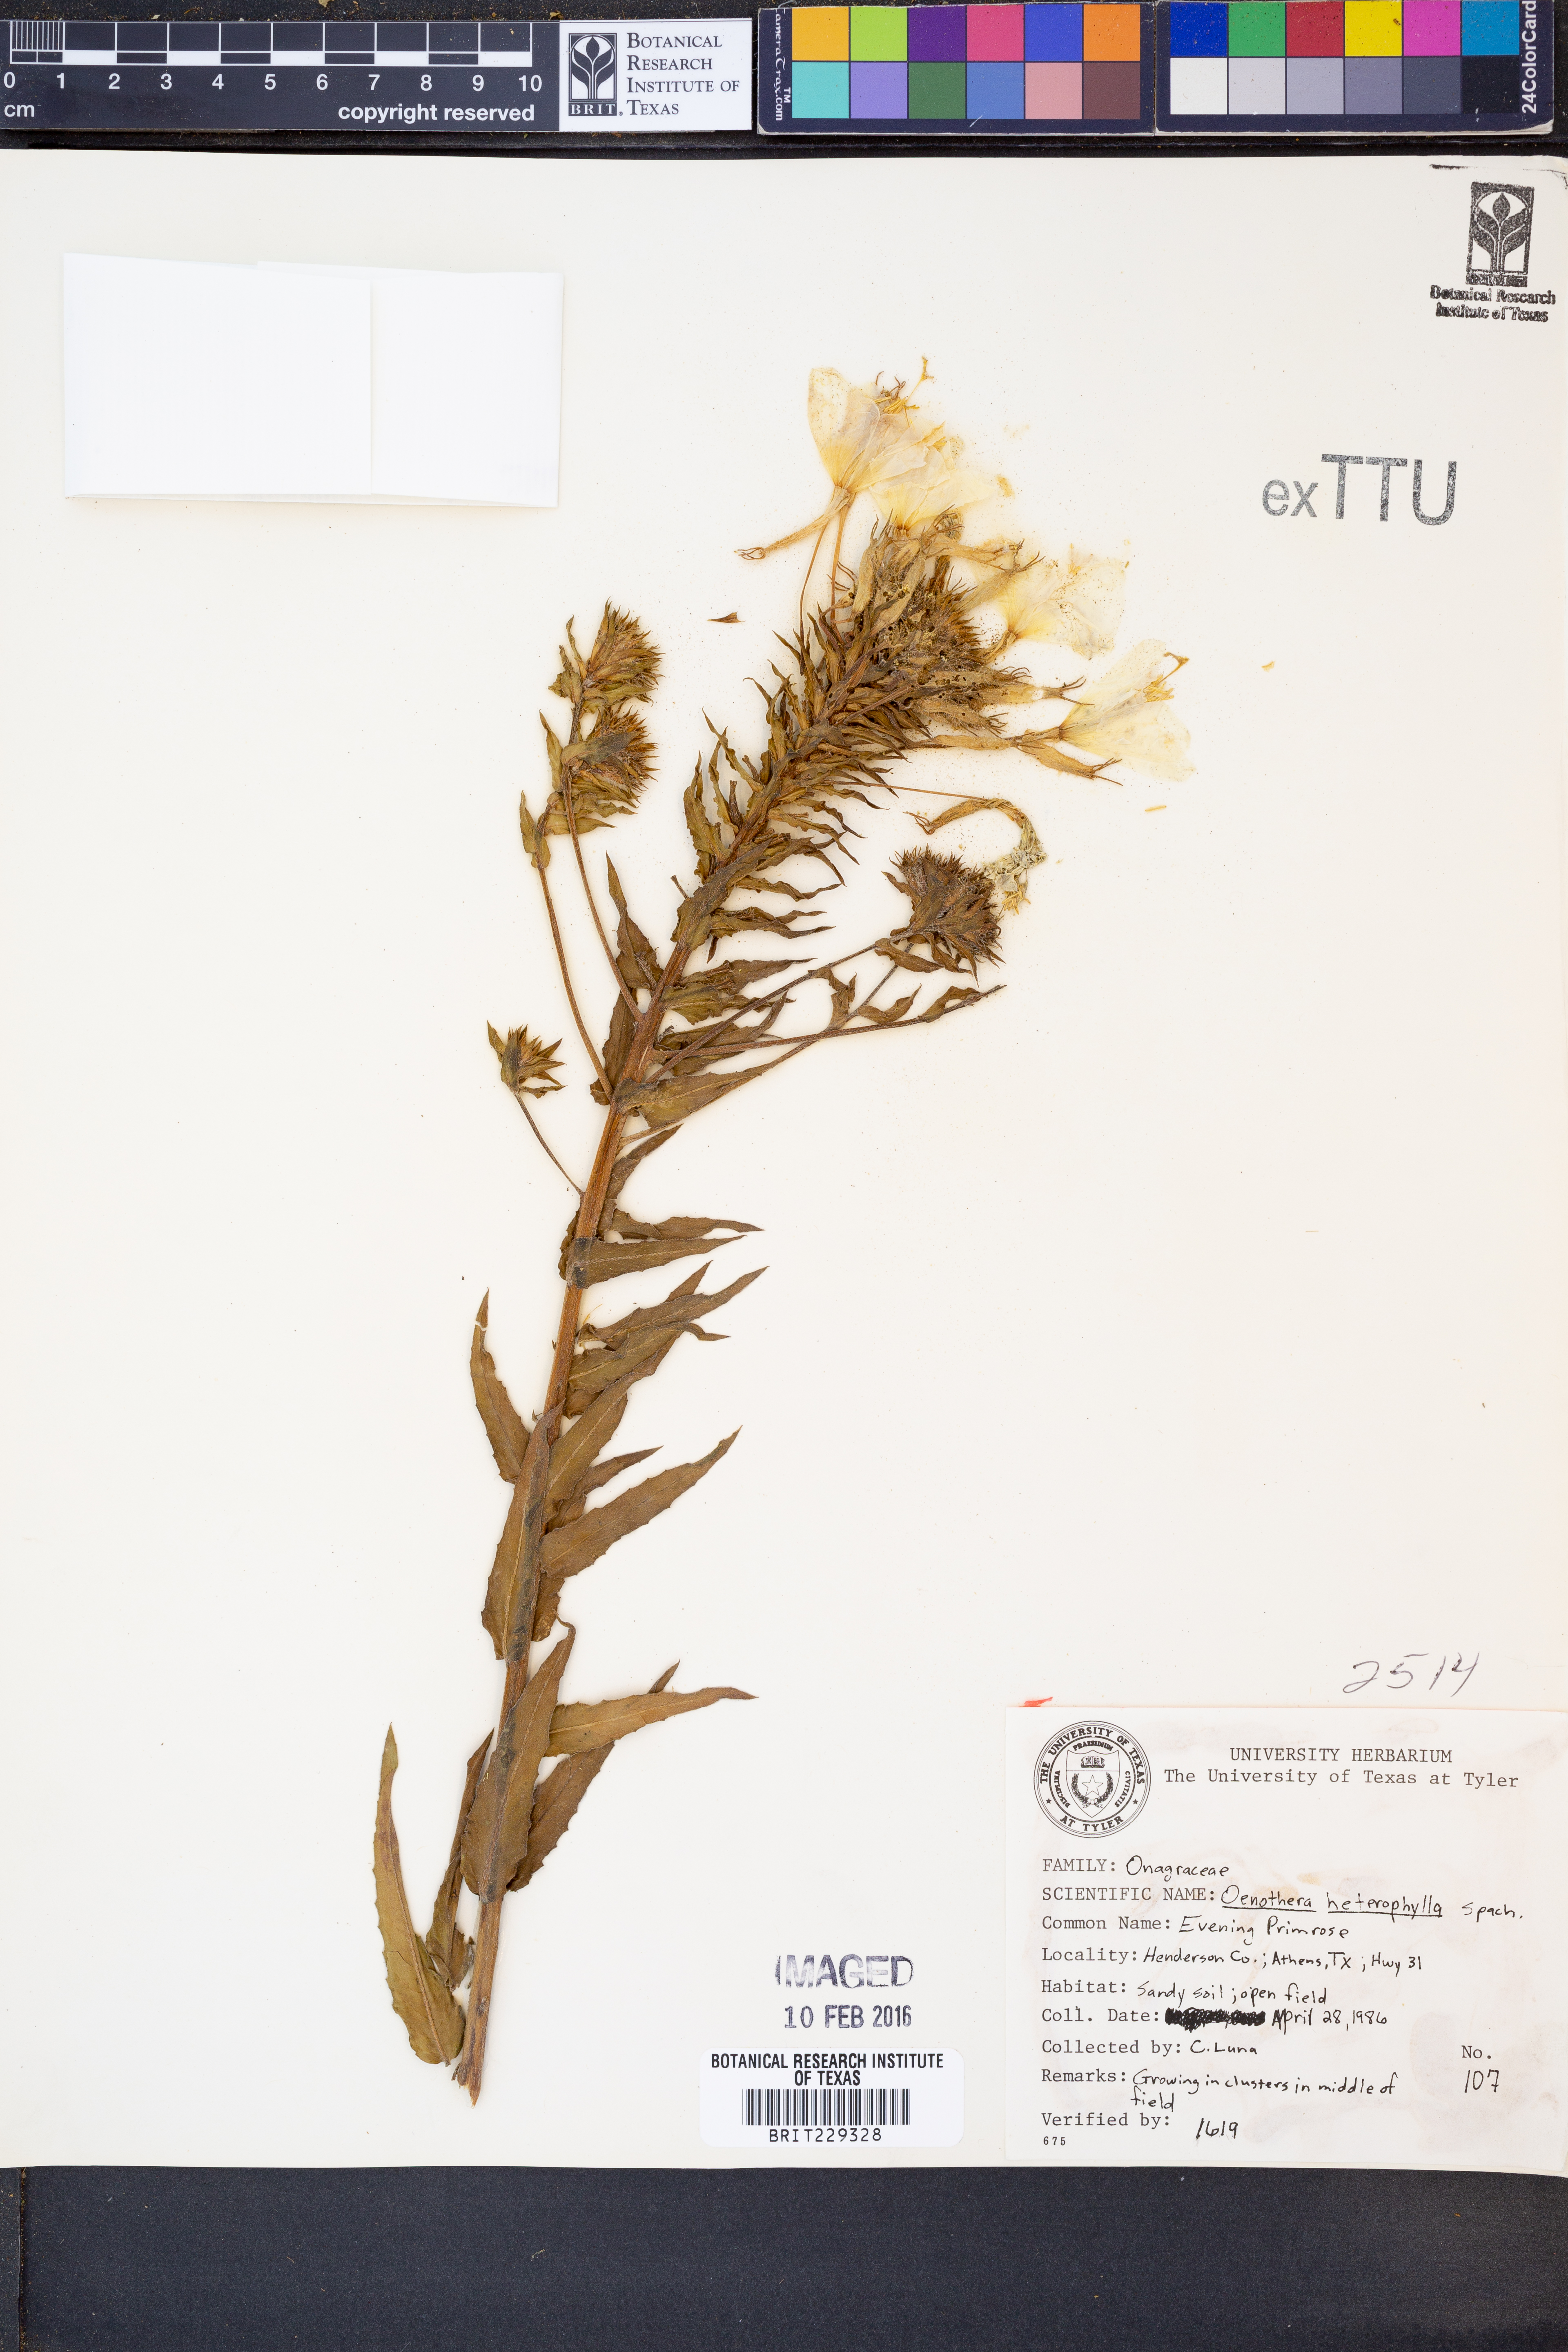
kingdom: Plantae
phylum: Tracheophyta
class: Magnoliopsida
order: Myrtales
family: Onagraceae
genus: Camissonia
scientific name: Camissonia dentata
